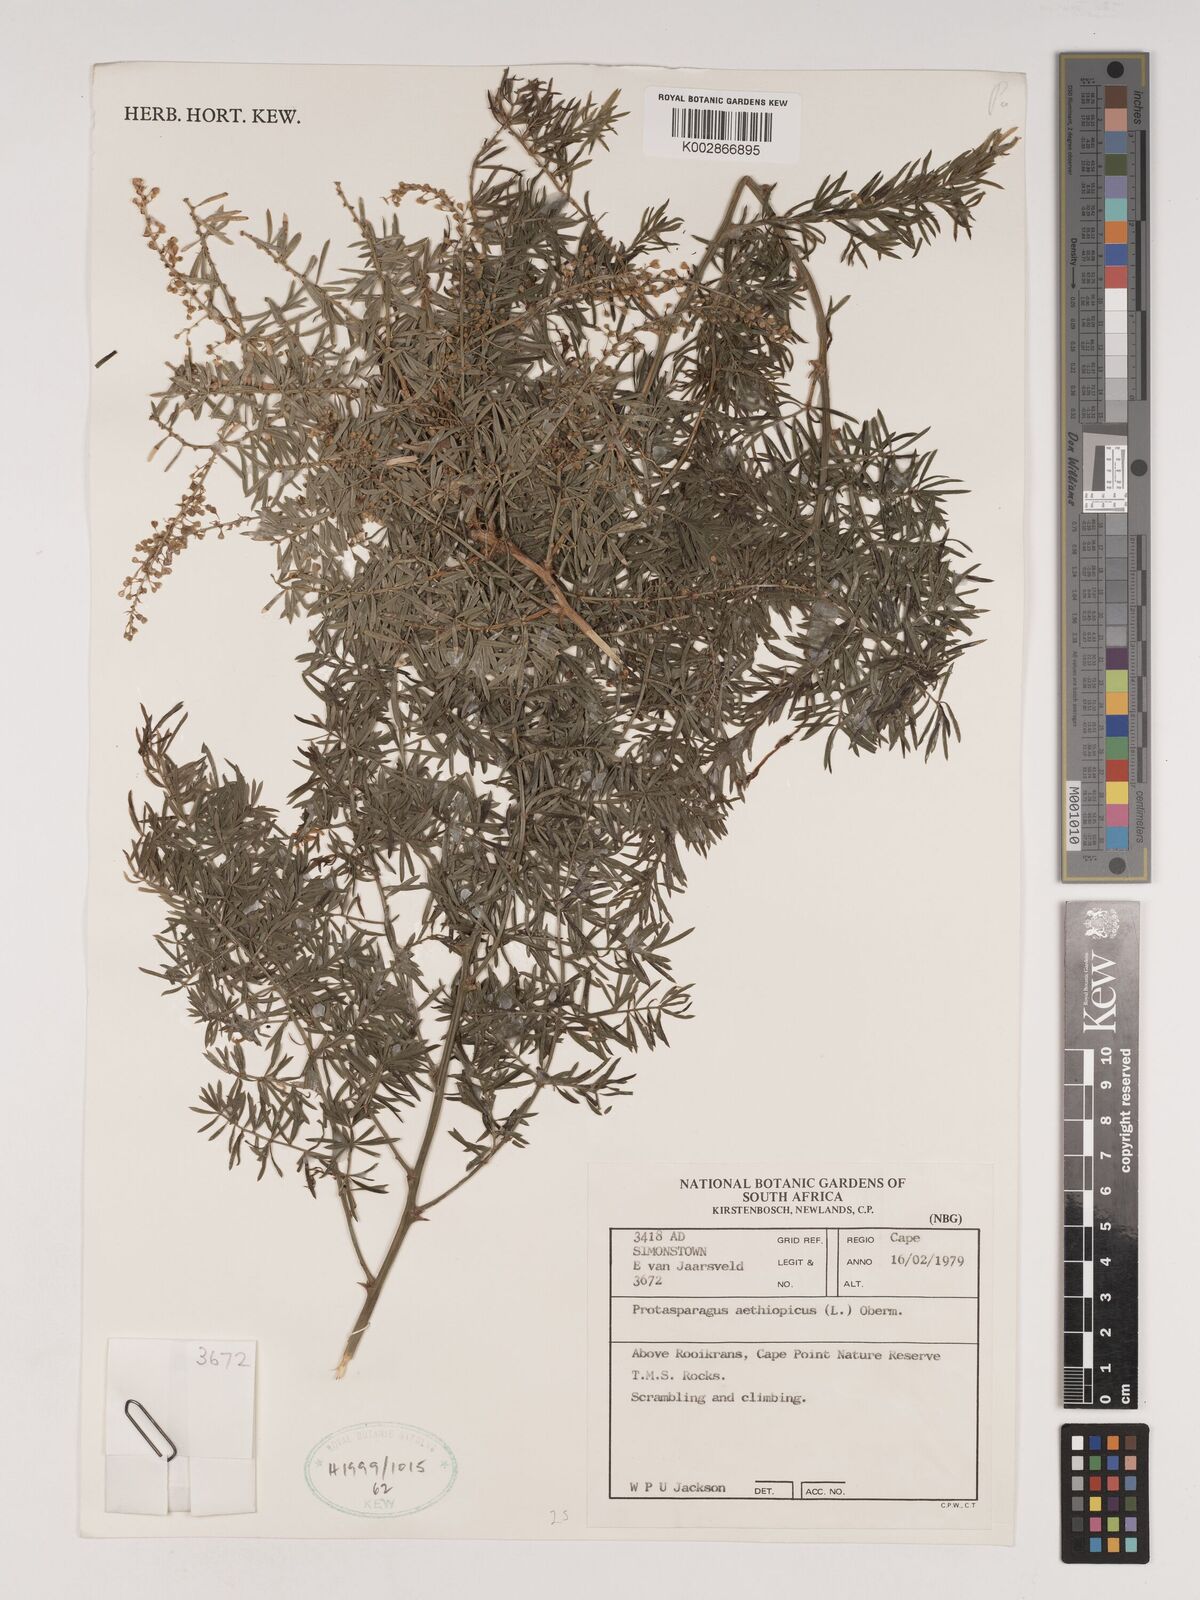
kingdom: Plantae
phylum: Tracheophyta
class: Liliopsida
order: Asparagales
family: Asparagaceae
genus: Asparagus
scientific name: Asparagus aethiopicus
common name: Sprenger's asparagus fern
